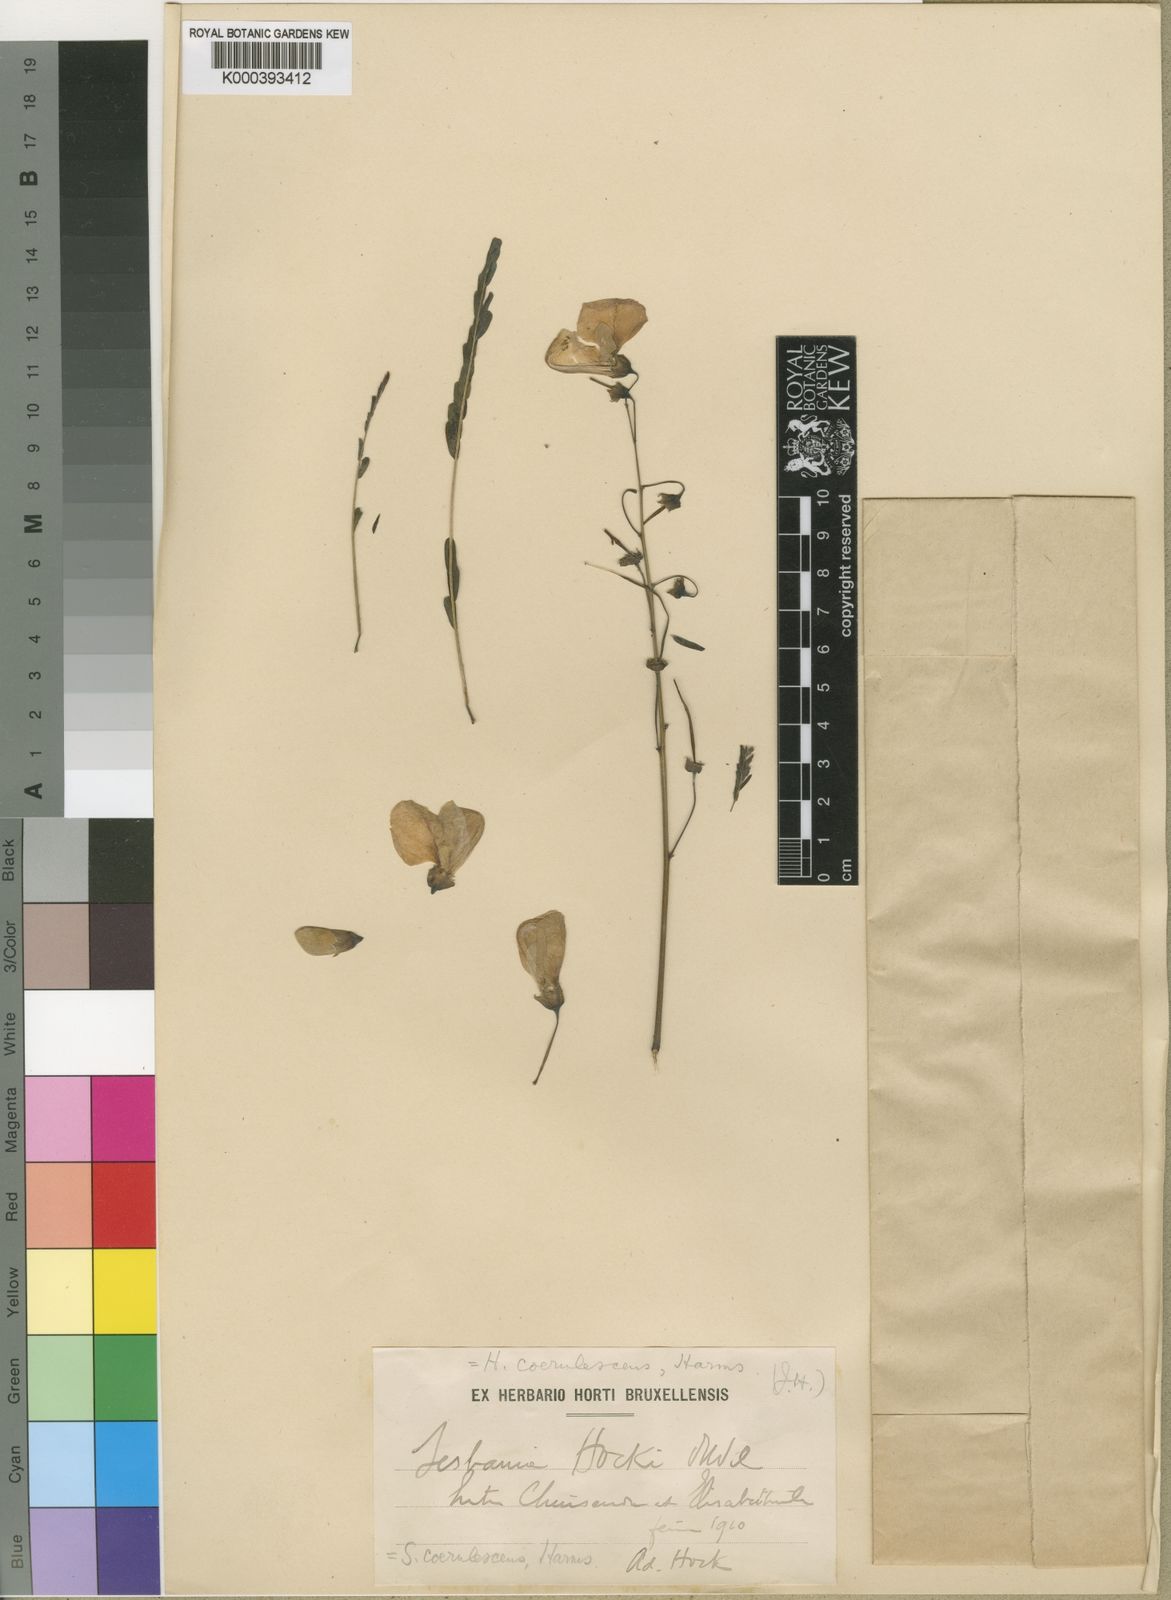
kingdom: Plantae
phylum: Tracheophyta
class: Magnoliopsida
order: Fabales
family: Fabaceae
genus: Sesbania
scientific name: Sesbania coerulescens
